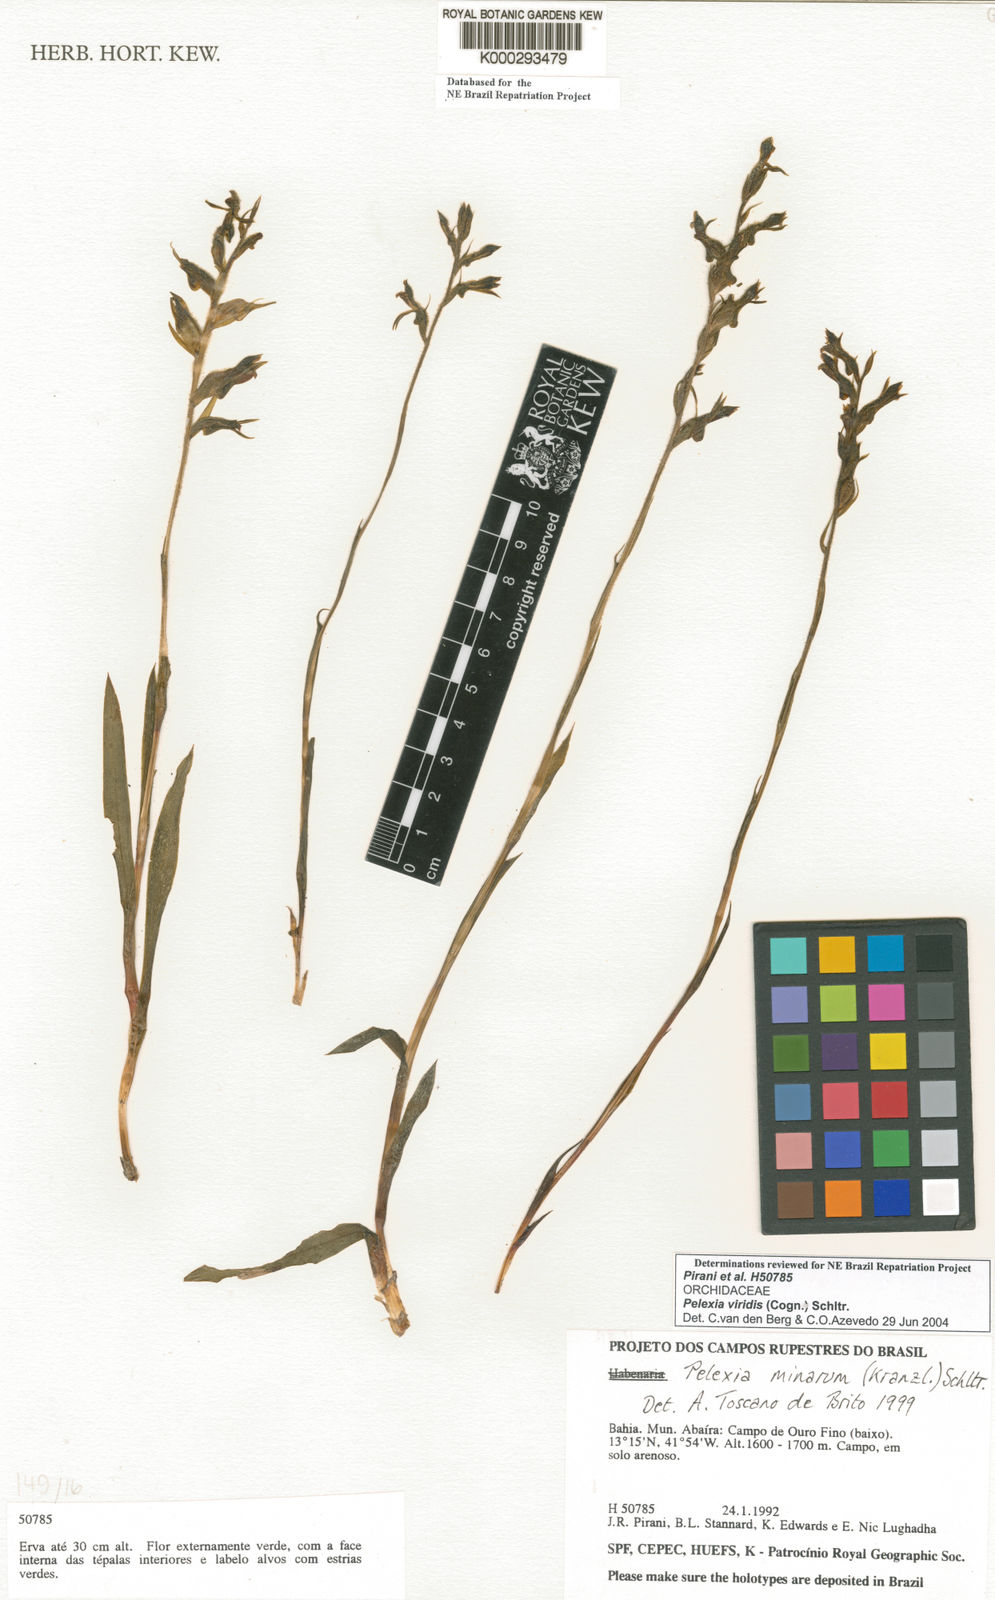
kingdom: Plantae
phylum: Tracheophyta
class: Liliopsida
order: Asparagales
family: Orchidaceae
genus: Pelexia
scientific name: Pelexia viridis
